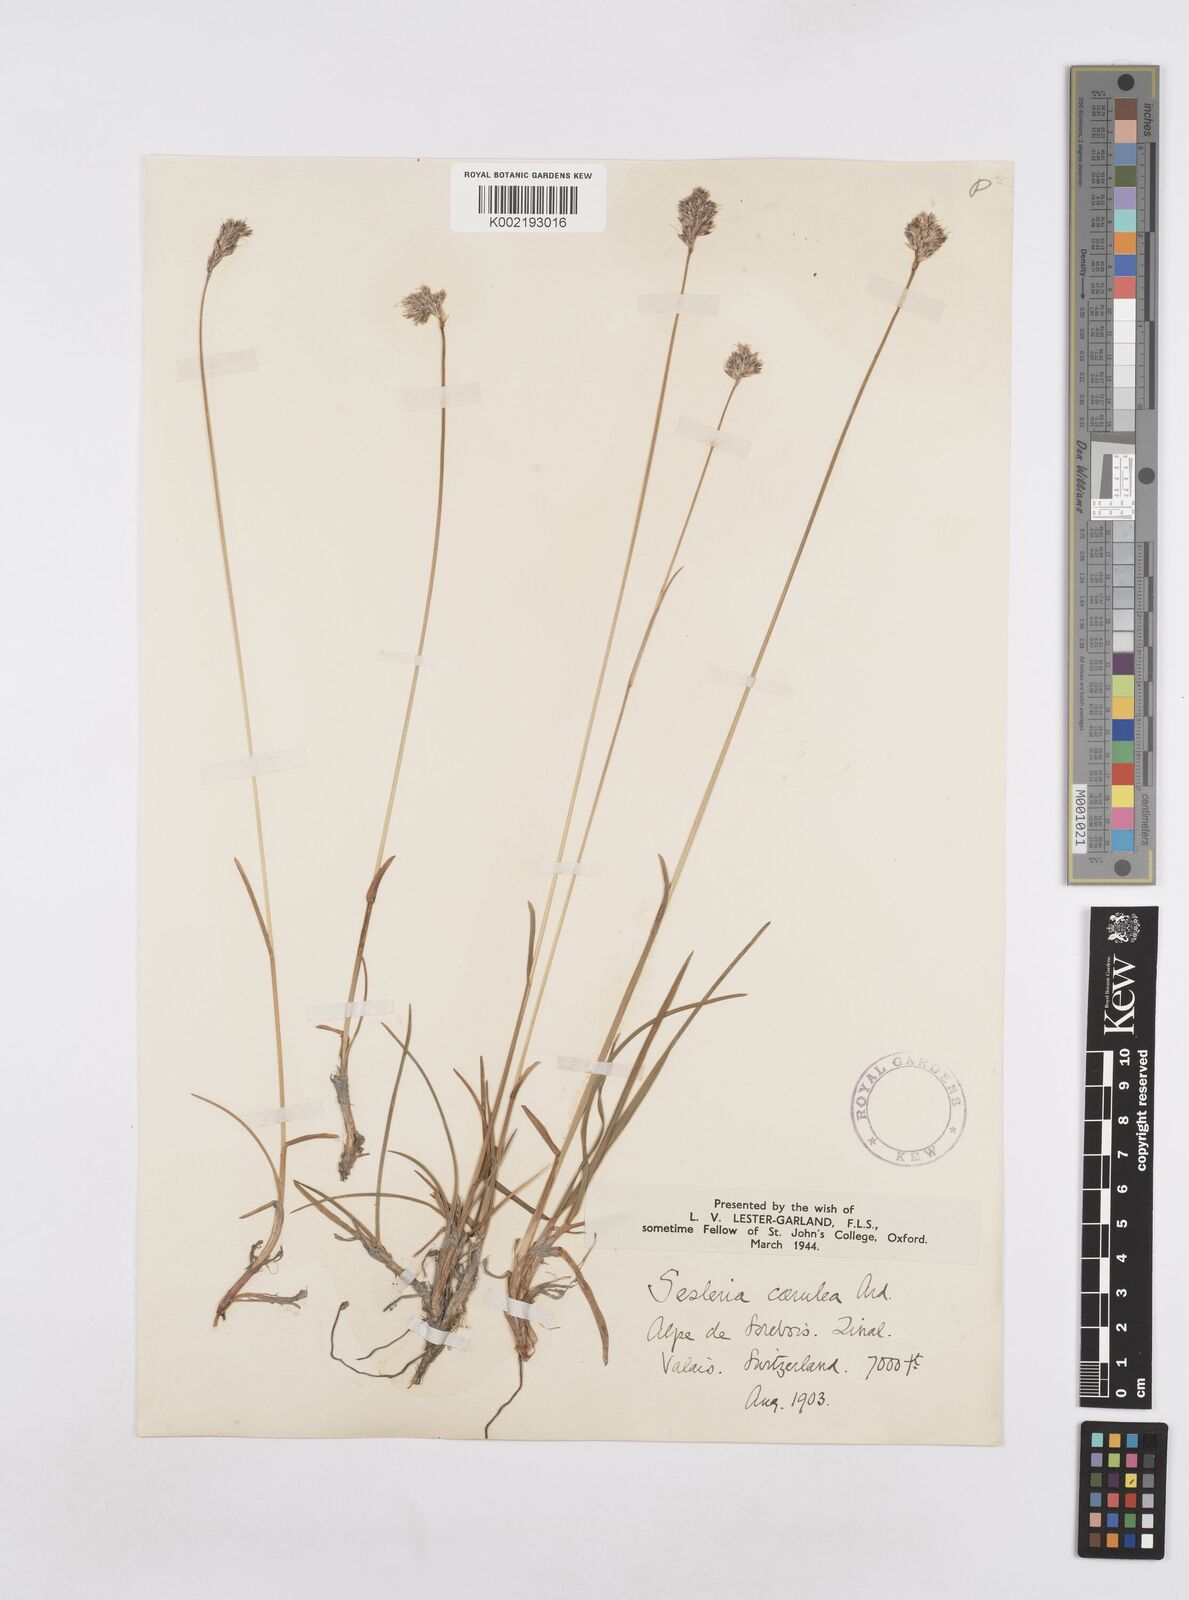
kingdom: Plantae
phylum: Tracheophyta
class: Liliopsida
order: Poales
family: Poaceae
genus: Sesleria
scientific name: Sesleria caerulea
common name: Blue moor-grass
